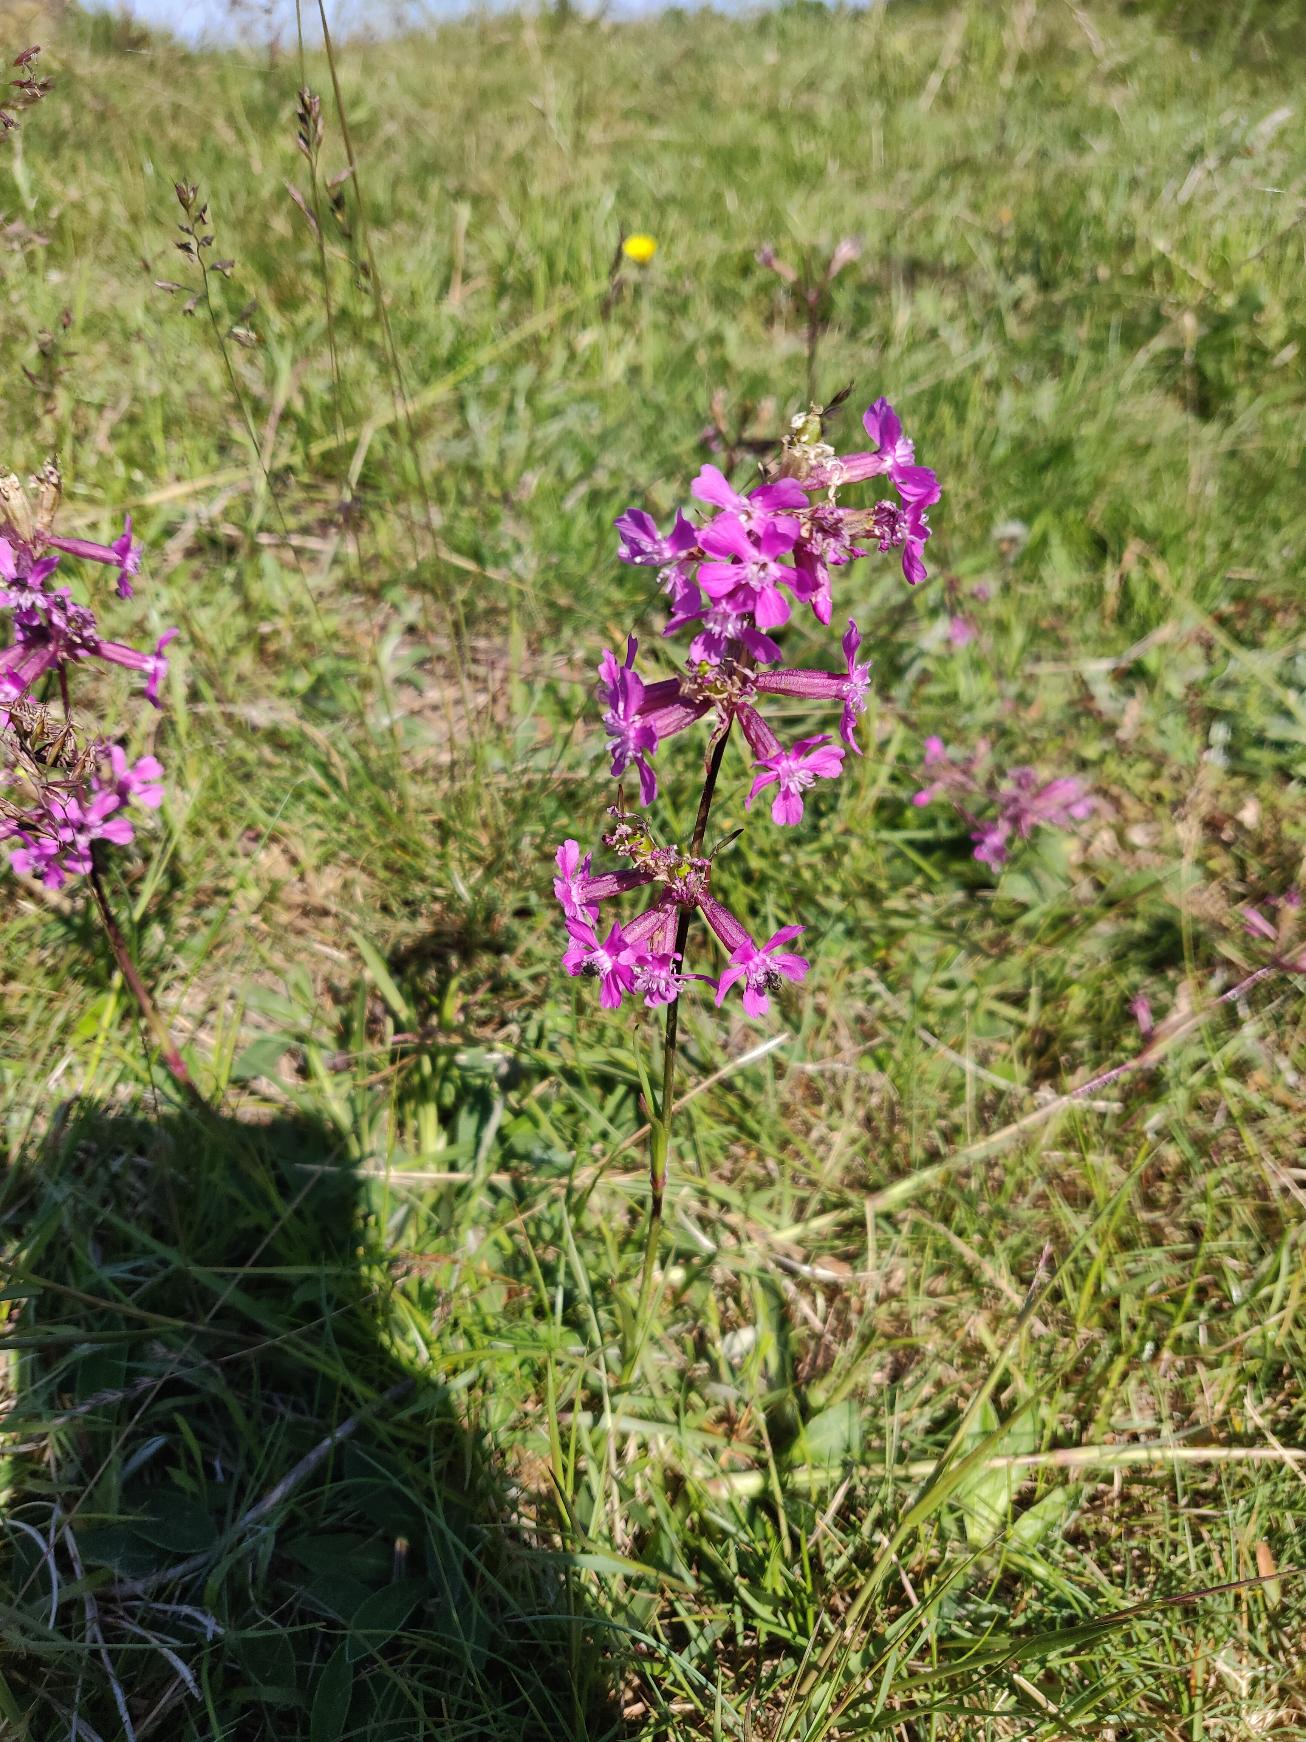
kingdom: Plantae
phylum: Tracheophyta
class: Magnoliopsida
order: Caryophyllales
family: Caryophyllaceae
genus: Viscaria
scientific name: Viscaria vulgaris
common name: Tjærenellike
